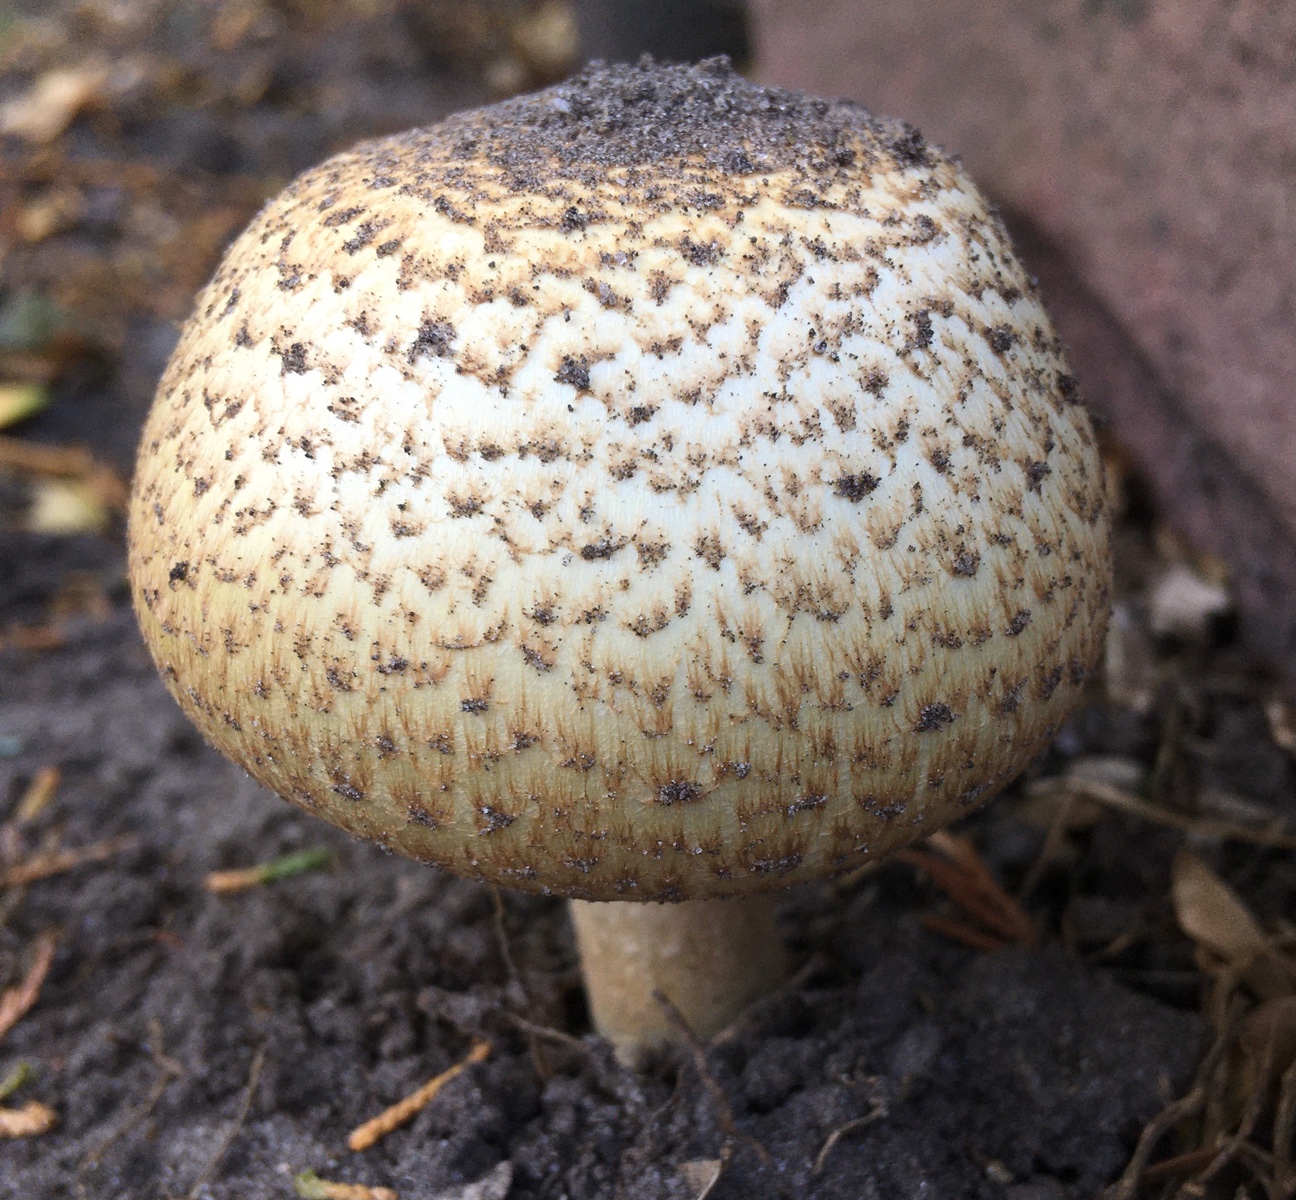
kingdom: Fungi
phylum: Basidiomycota
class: Agaricomycetes
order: Agaricales
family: Agaricaceae
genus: Agaricus
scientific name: Agaricus augustus
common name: prægtig champignon
